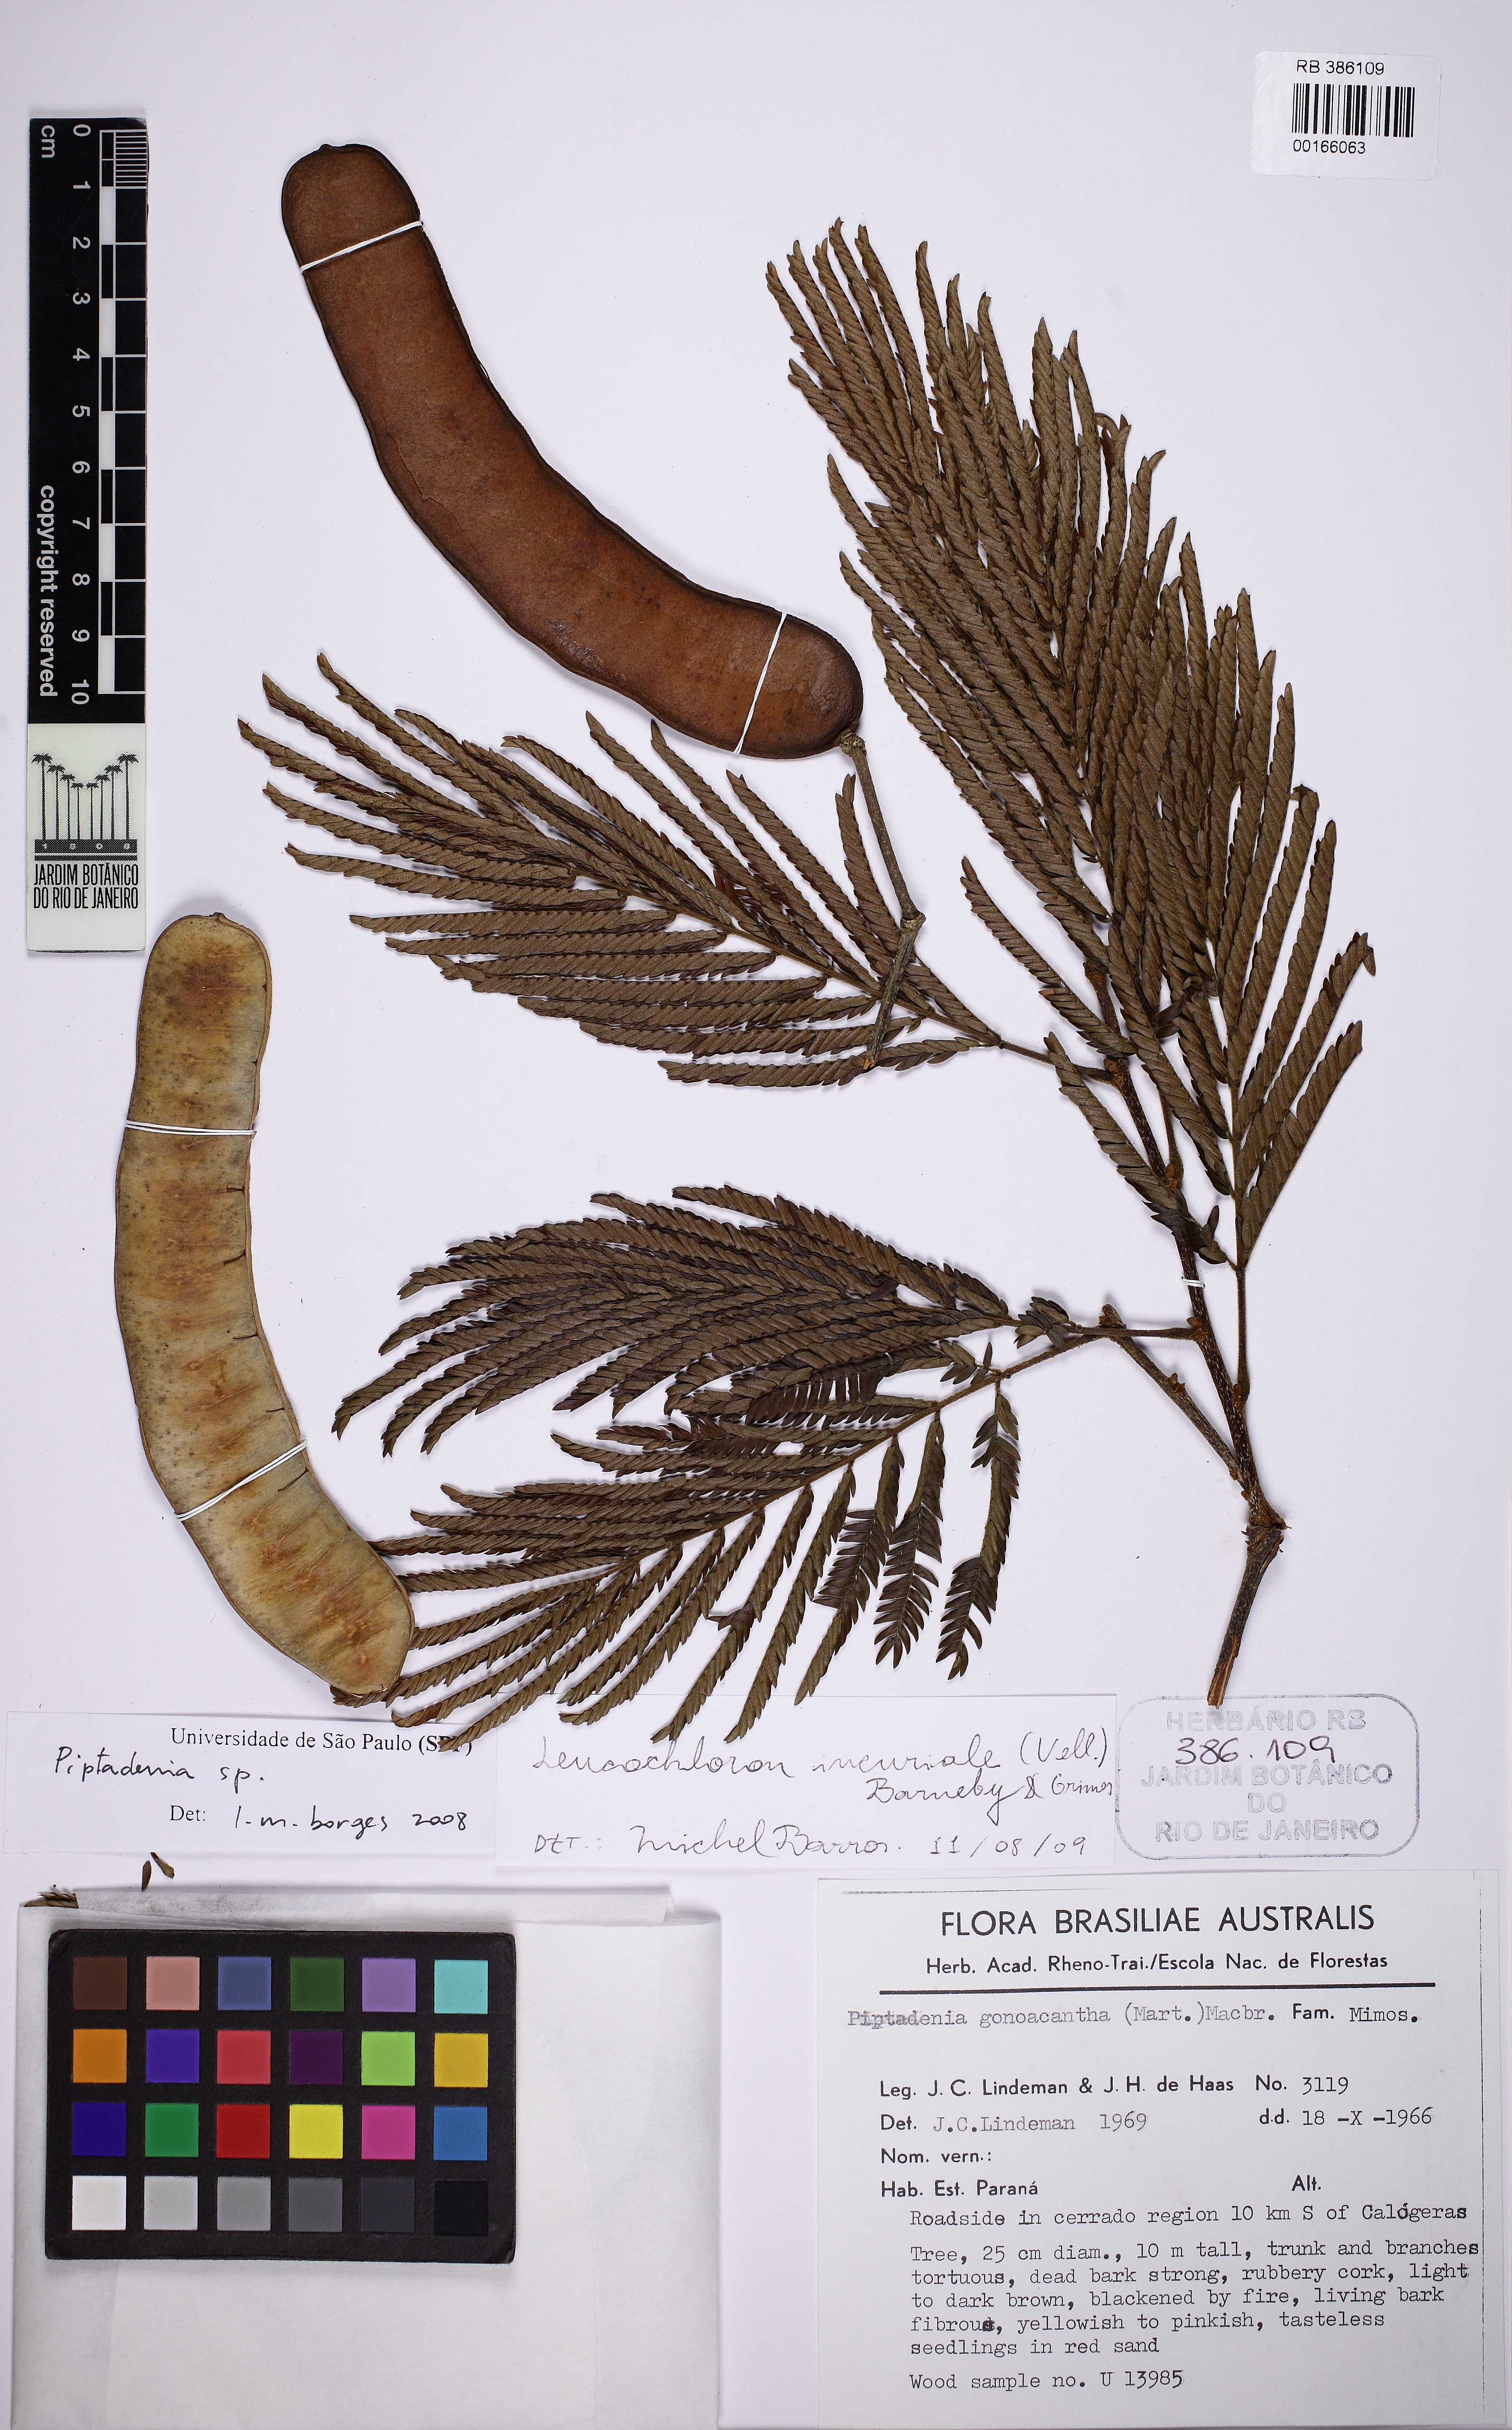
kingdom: Plantae
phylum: Tracheophyta
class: Magnoliopsida
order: Fabales
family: Fabaceae
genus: Pseudopiptadenia
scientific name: Pseudopiptadenia
